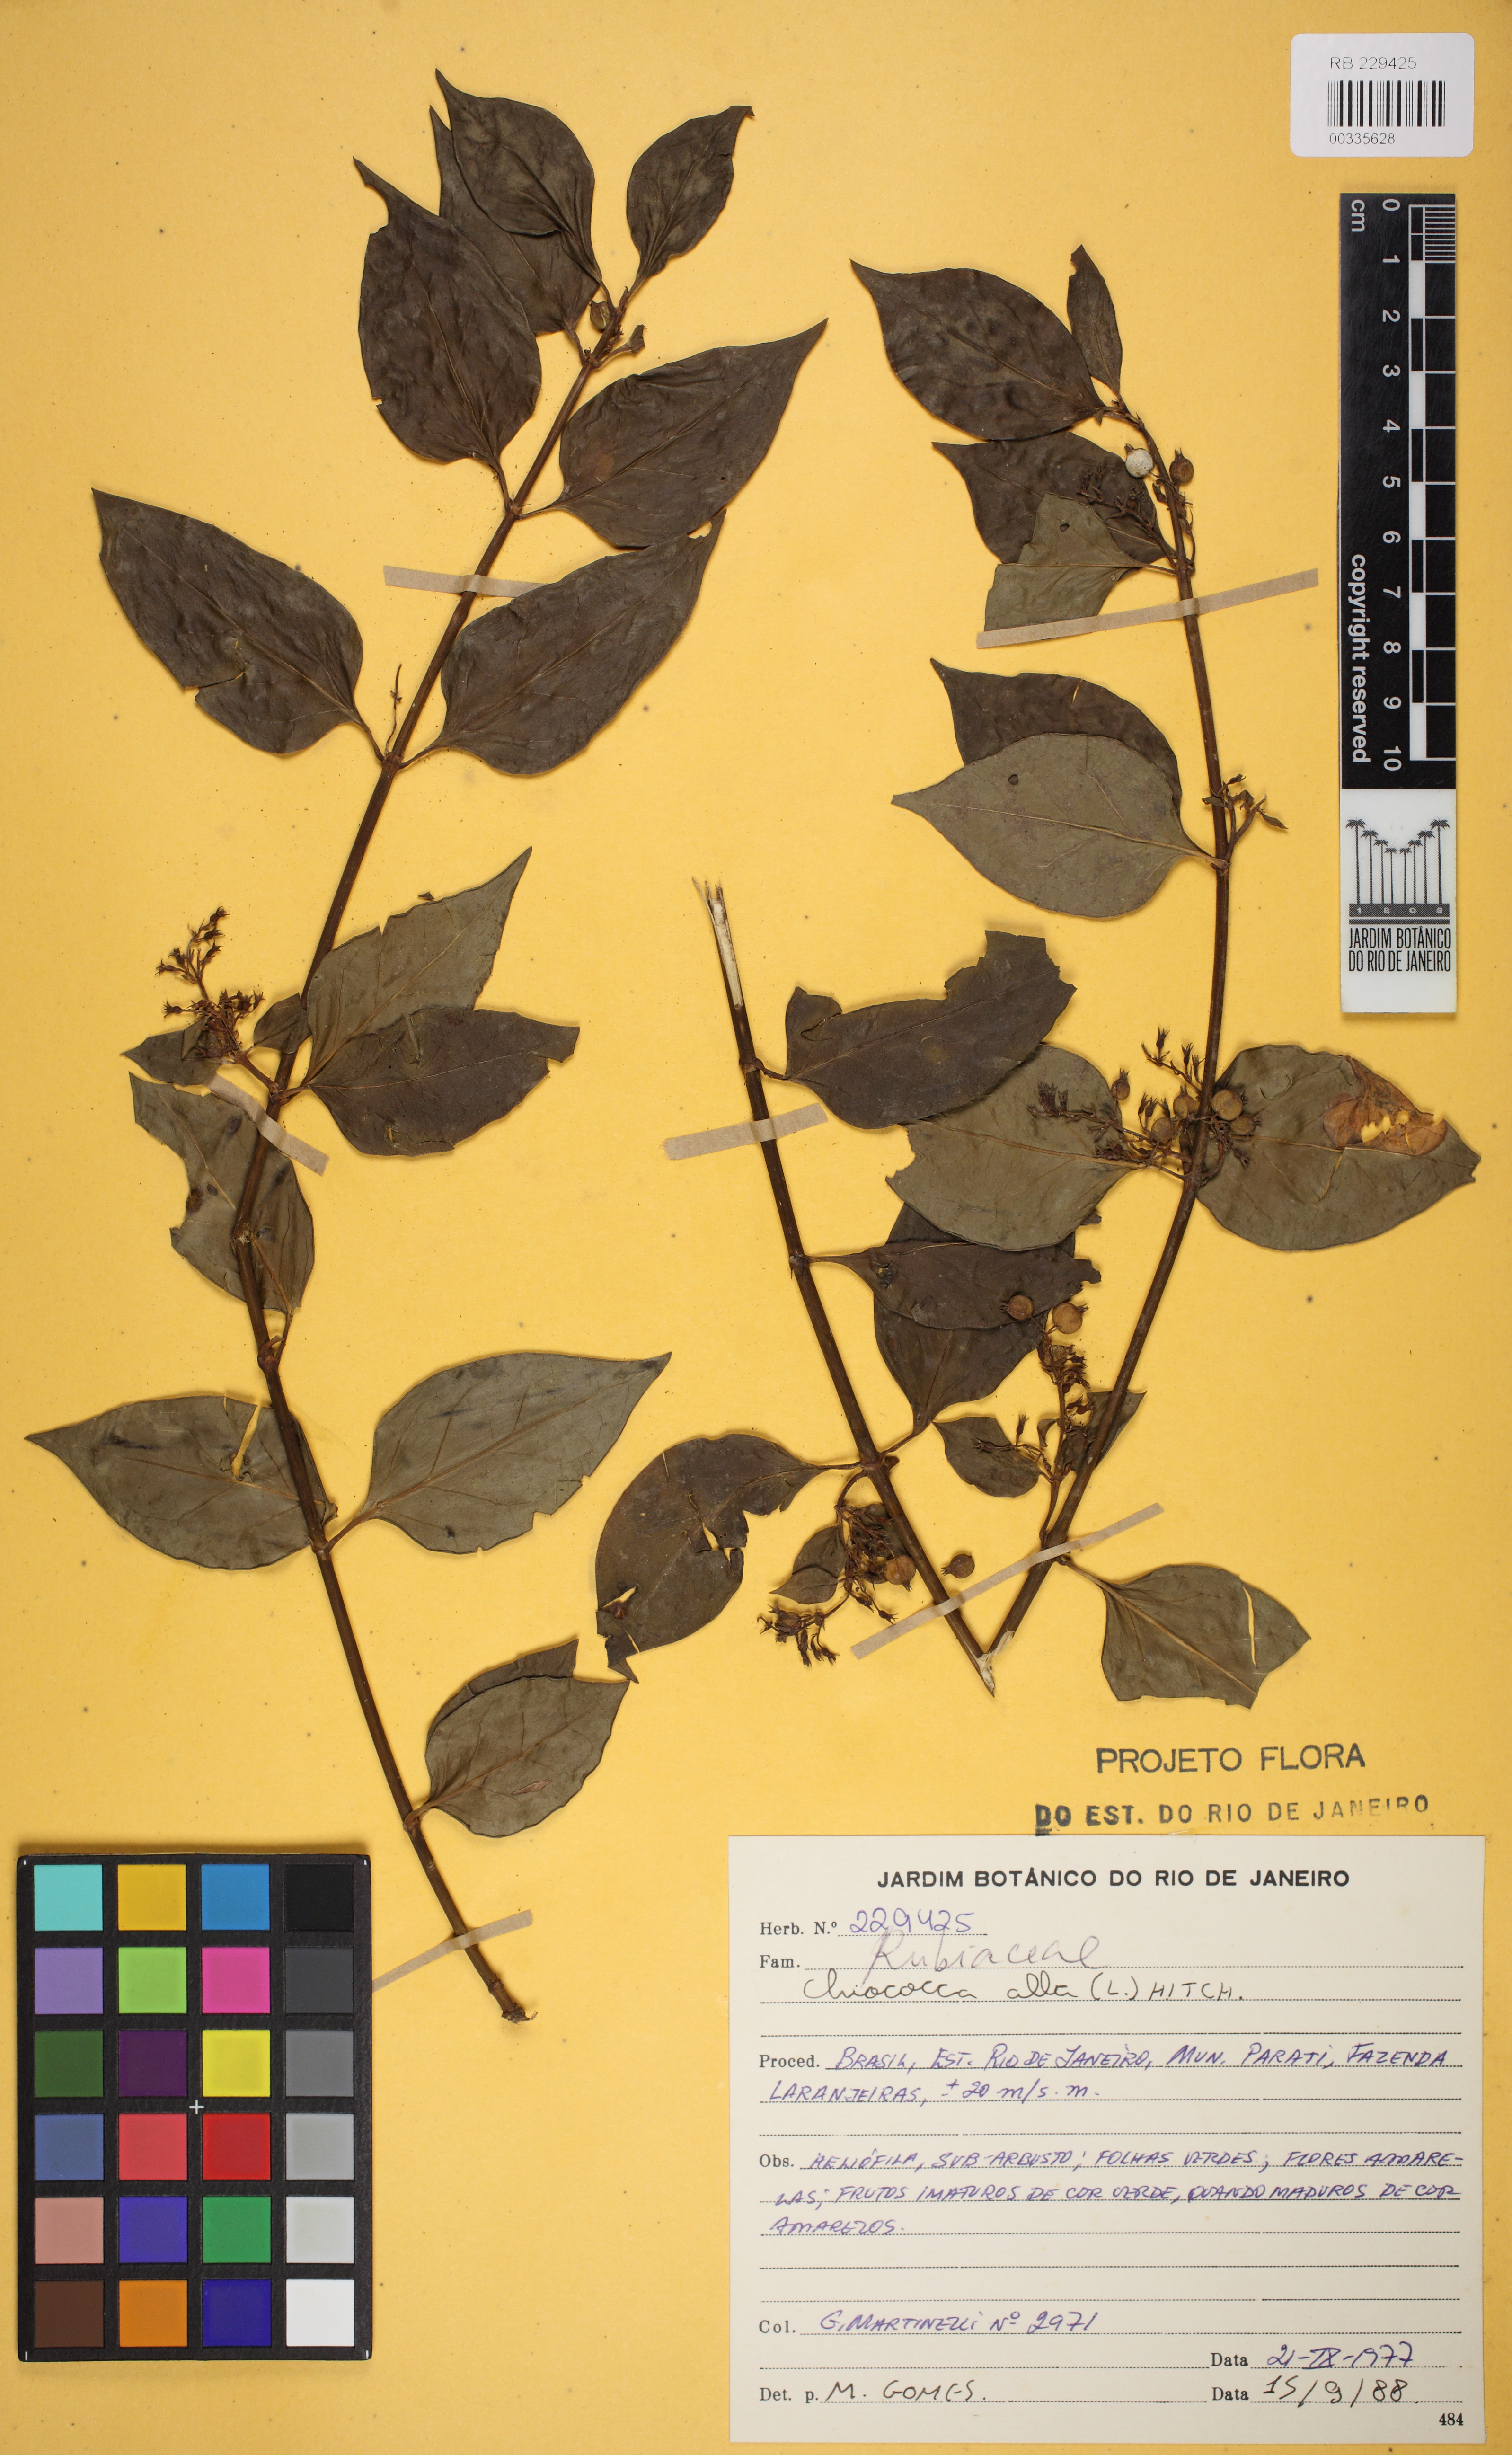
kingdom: Plantae
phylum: Tracheophyta
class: Magnoliopsida
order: Gentianales
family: Rubiaceae
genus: Chiococca
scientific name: Chiococca alba
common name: Snowberry
